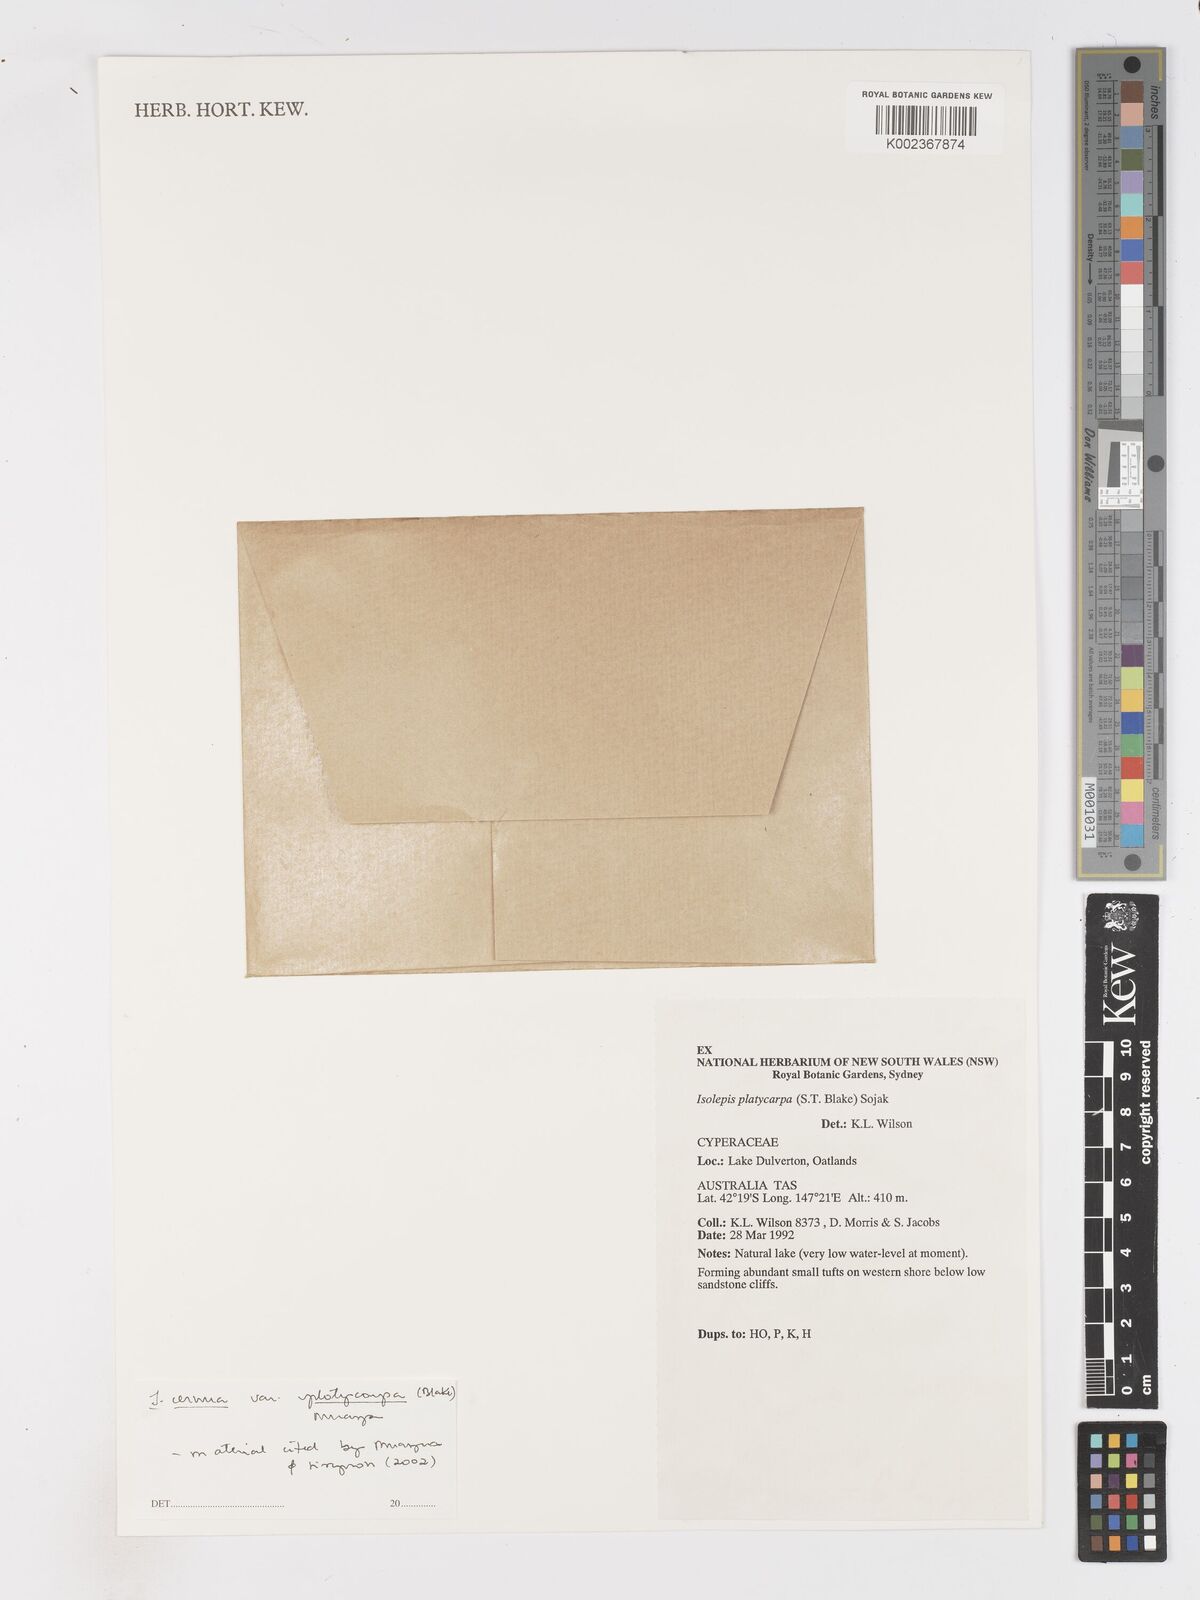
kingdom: Plantae
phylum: Tracheophyta
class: Liliopsida
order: Poales
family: Cyperaceae
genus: Isolepis
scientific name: Isolepis cernua
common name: Slender club-rush
